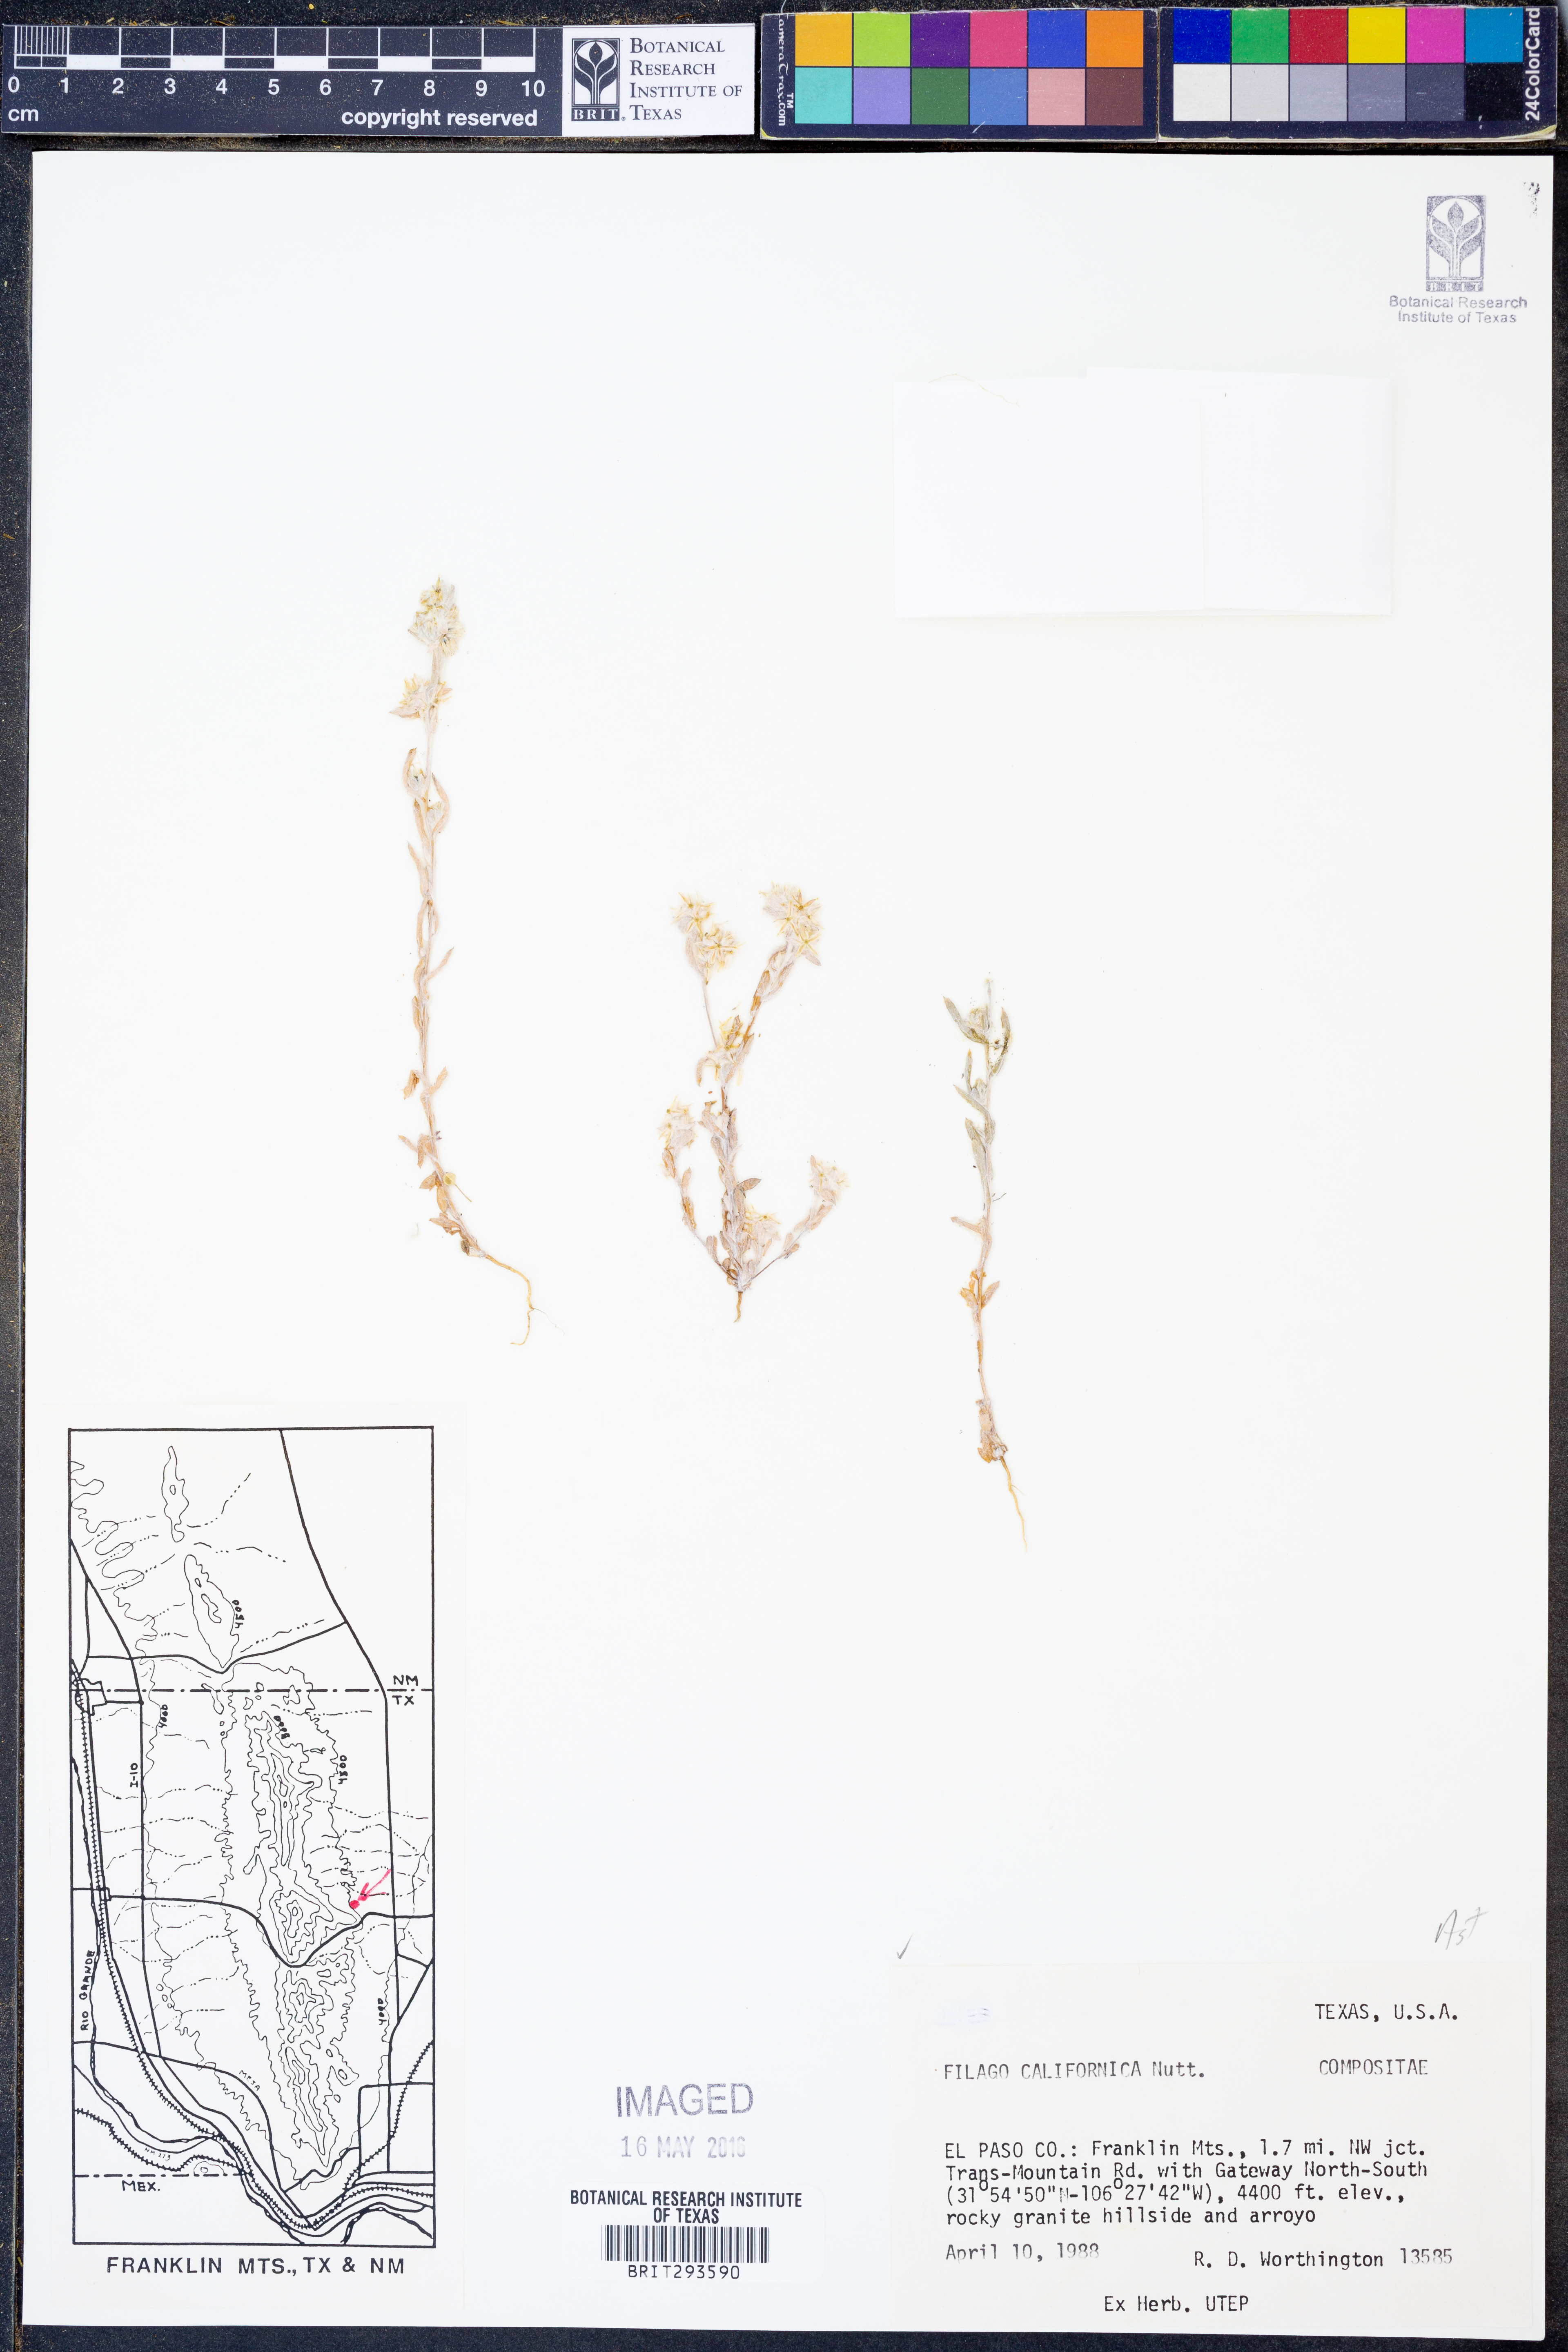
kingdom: Plantae
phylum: Tracheophyta
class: Magnoliopsida
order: Asterales
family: Asteraceae
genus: Logfia
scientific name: Logfia californica
